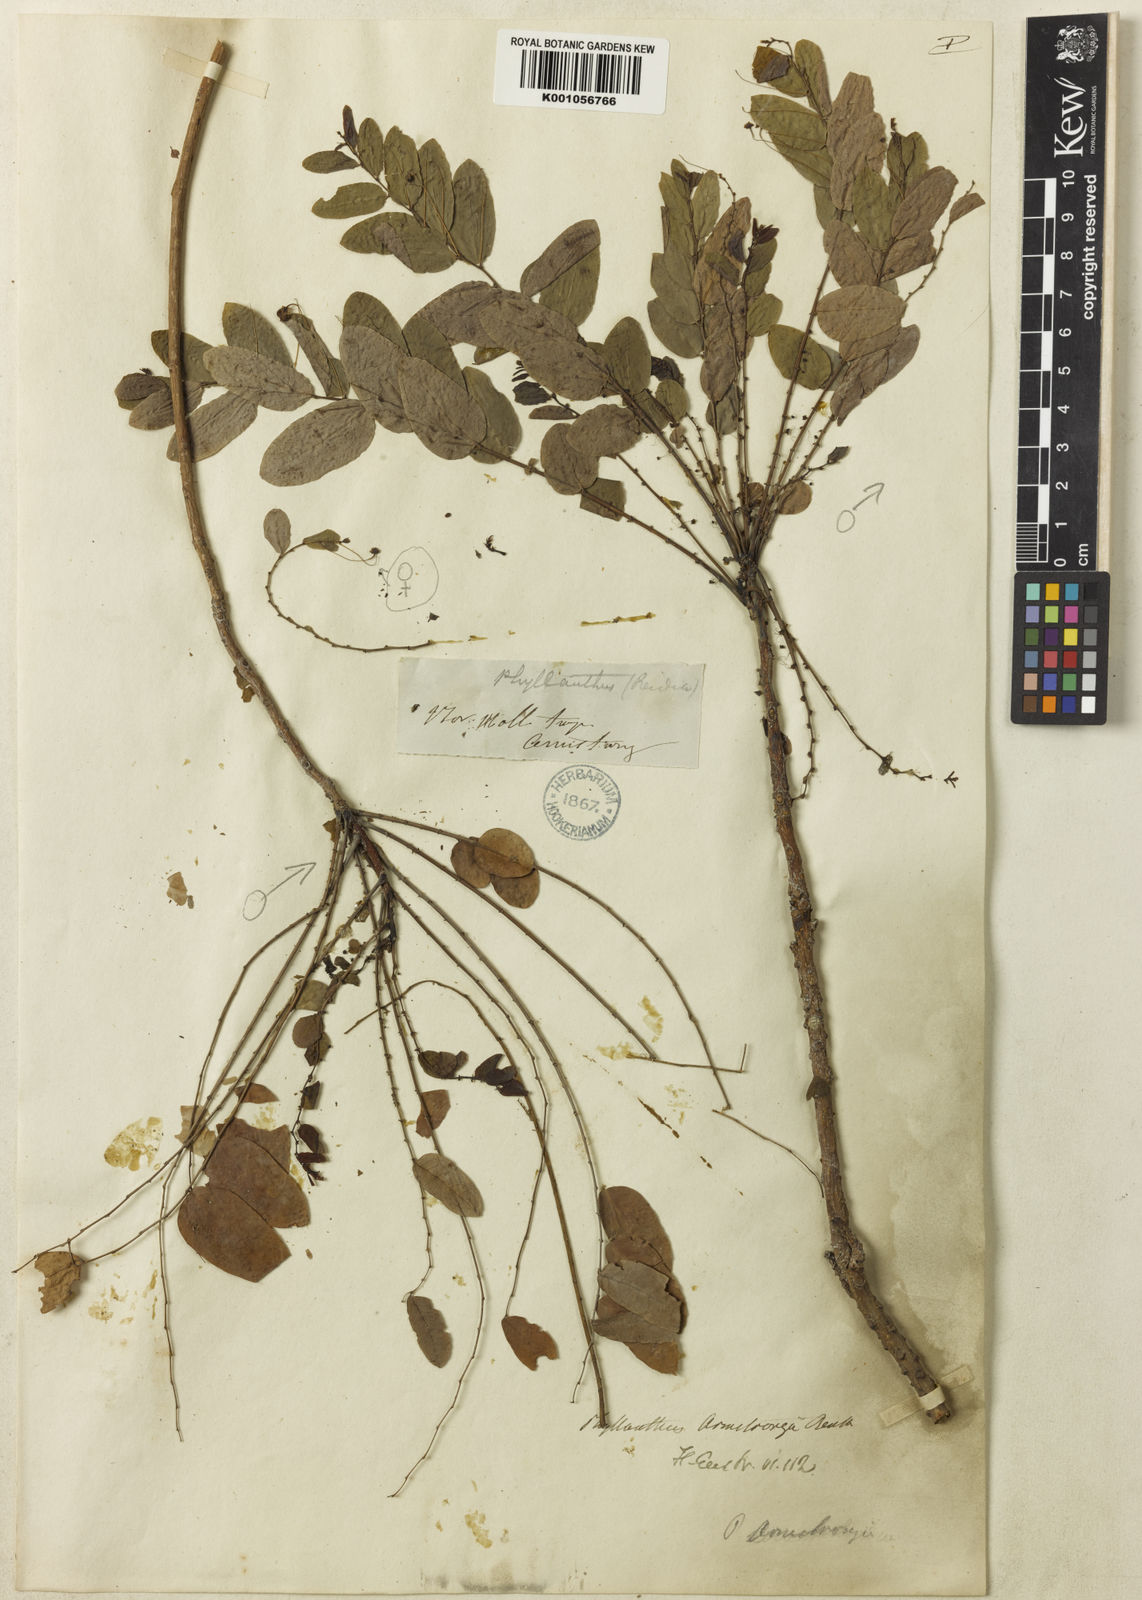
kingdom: Plantae
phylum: Tracheophyta
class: Magnoliopsida
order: Malpighiales
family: Phyllanthaceae
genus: Phyllanthus
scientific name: Phyllanthus armstrongii
